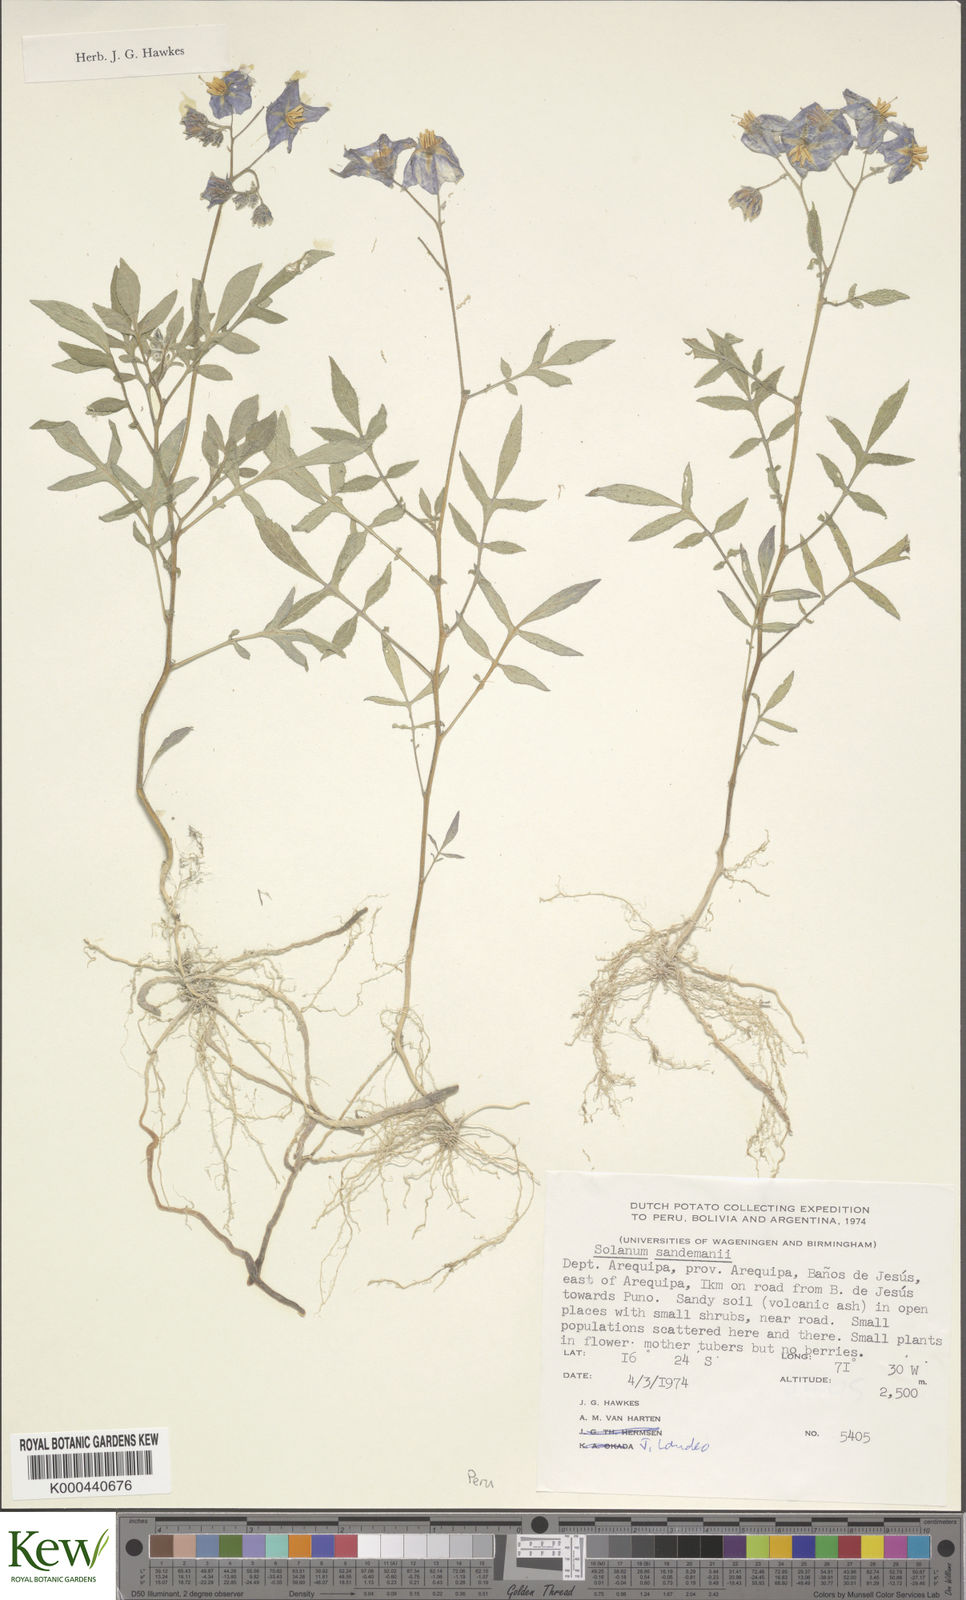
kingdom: Plantae
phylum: Tracheophyta
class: Magnoliopsida
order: Solanales
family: Solanaceae
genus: Solanum
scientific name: Solanum medians
